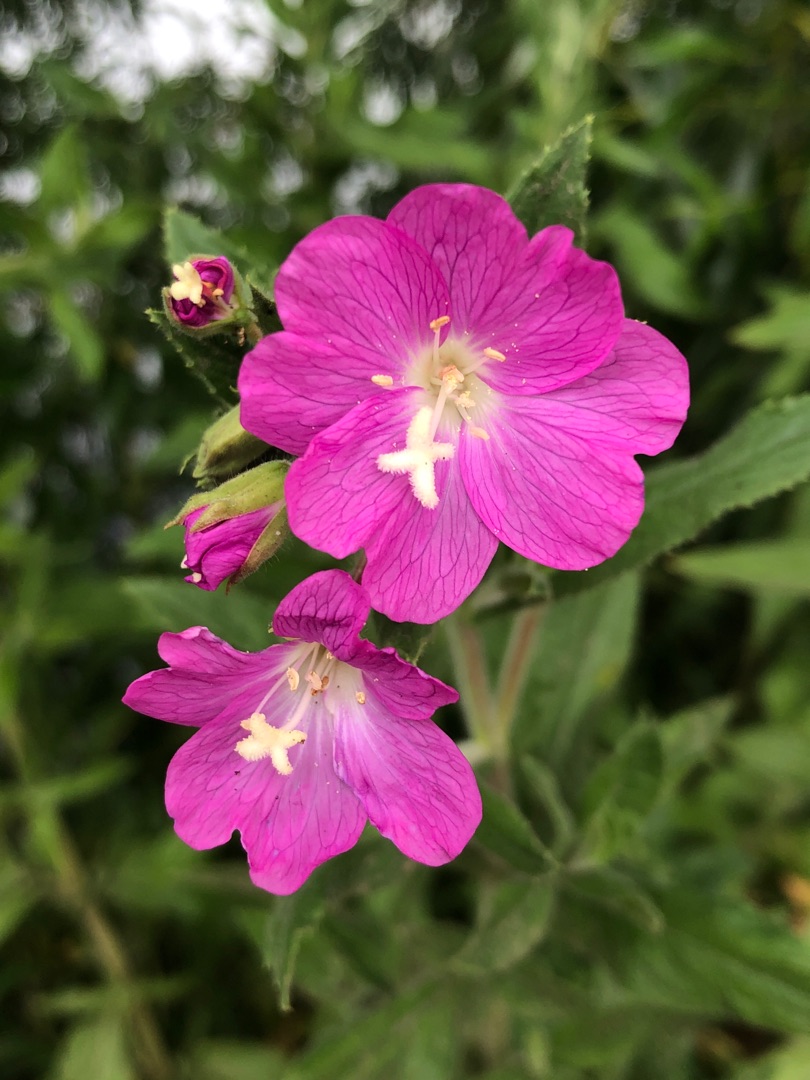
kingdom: Plantae
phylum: Tracheophyta
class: Magnoliopsida
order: Myrtales
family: Onagraceae
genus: Epilobium
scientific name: Epilobium hirsutum
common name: Lådden dueurt
